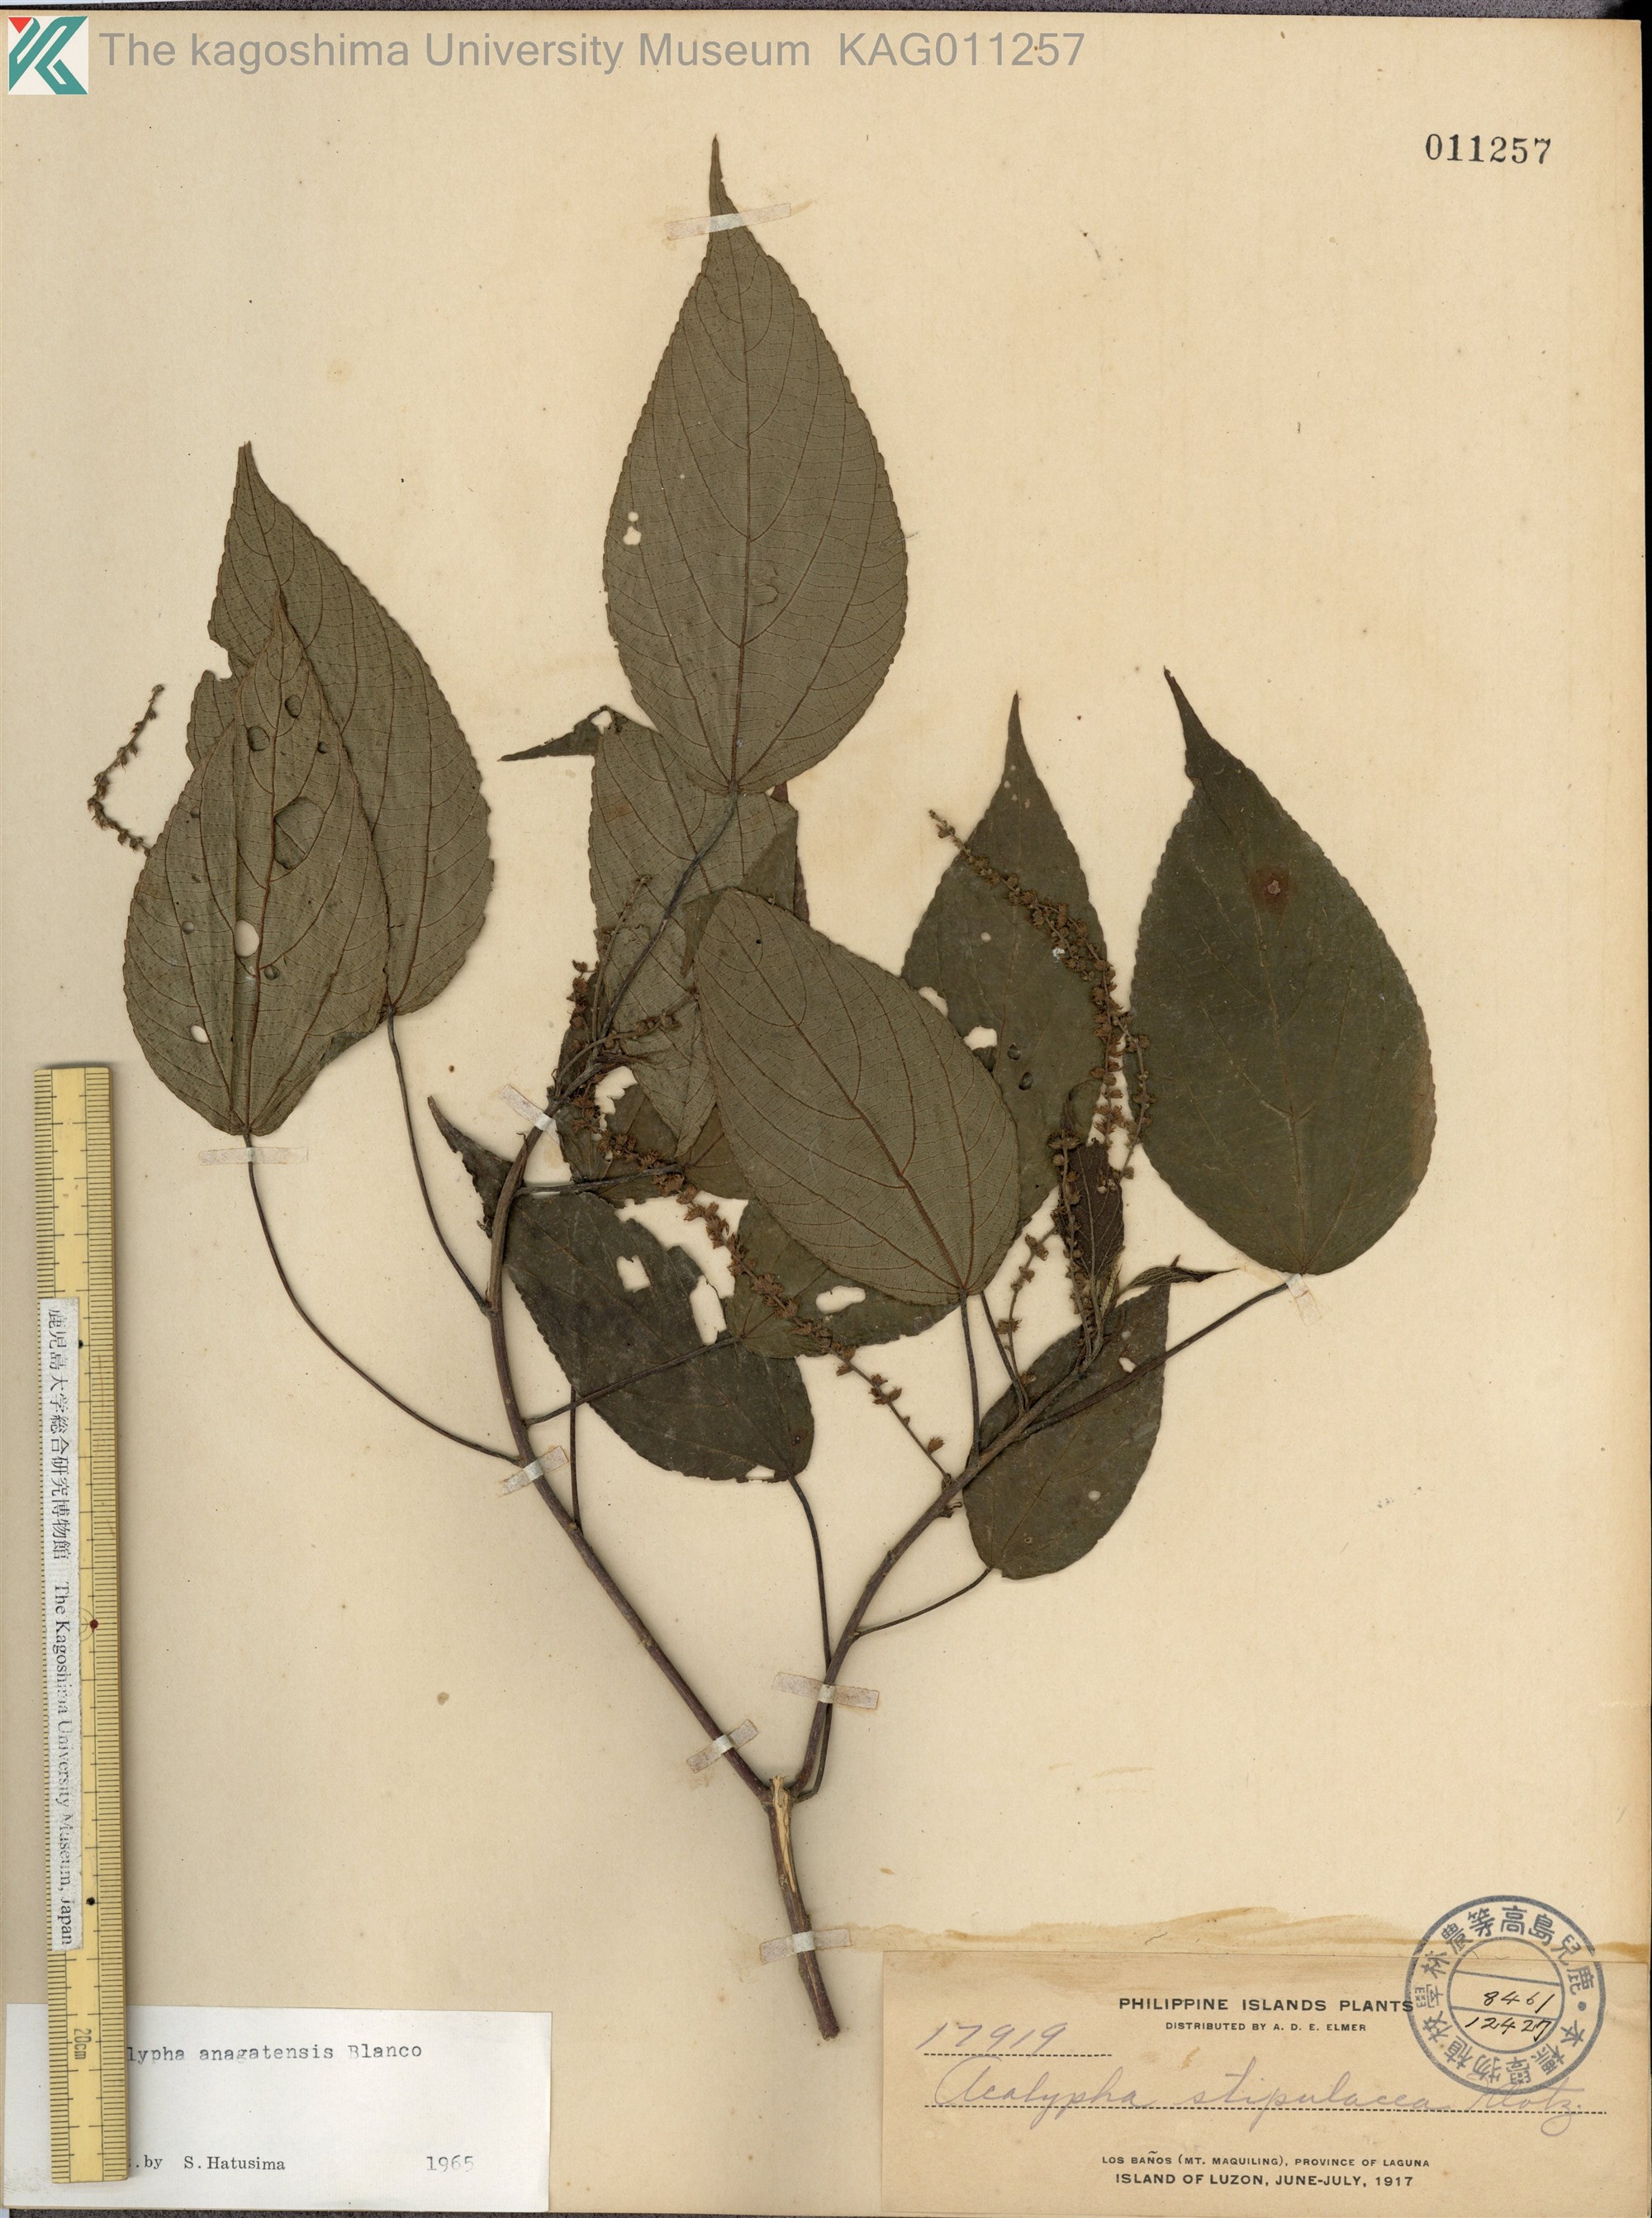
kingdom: Plantae
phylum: Tracheophyta
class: Magnoliopsida
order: Malpighiales
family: Euphorbiaceae
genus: Acalypha
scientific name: Acalypha insulana
